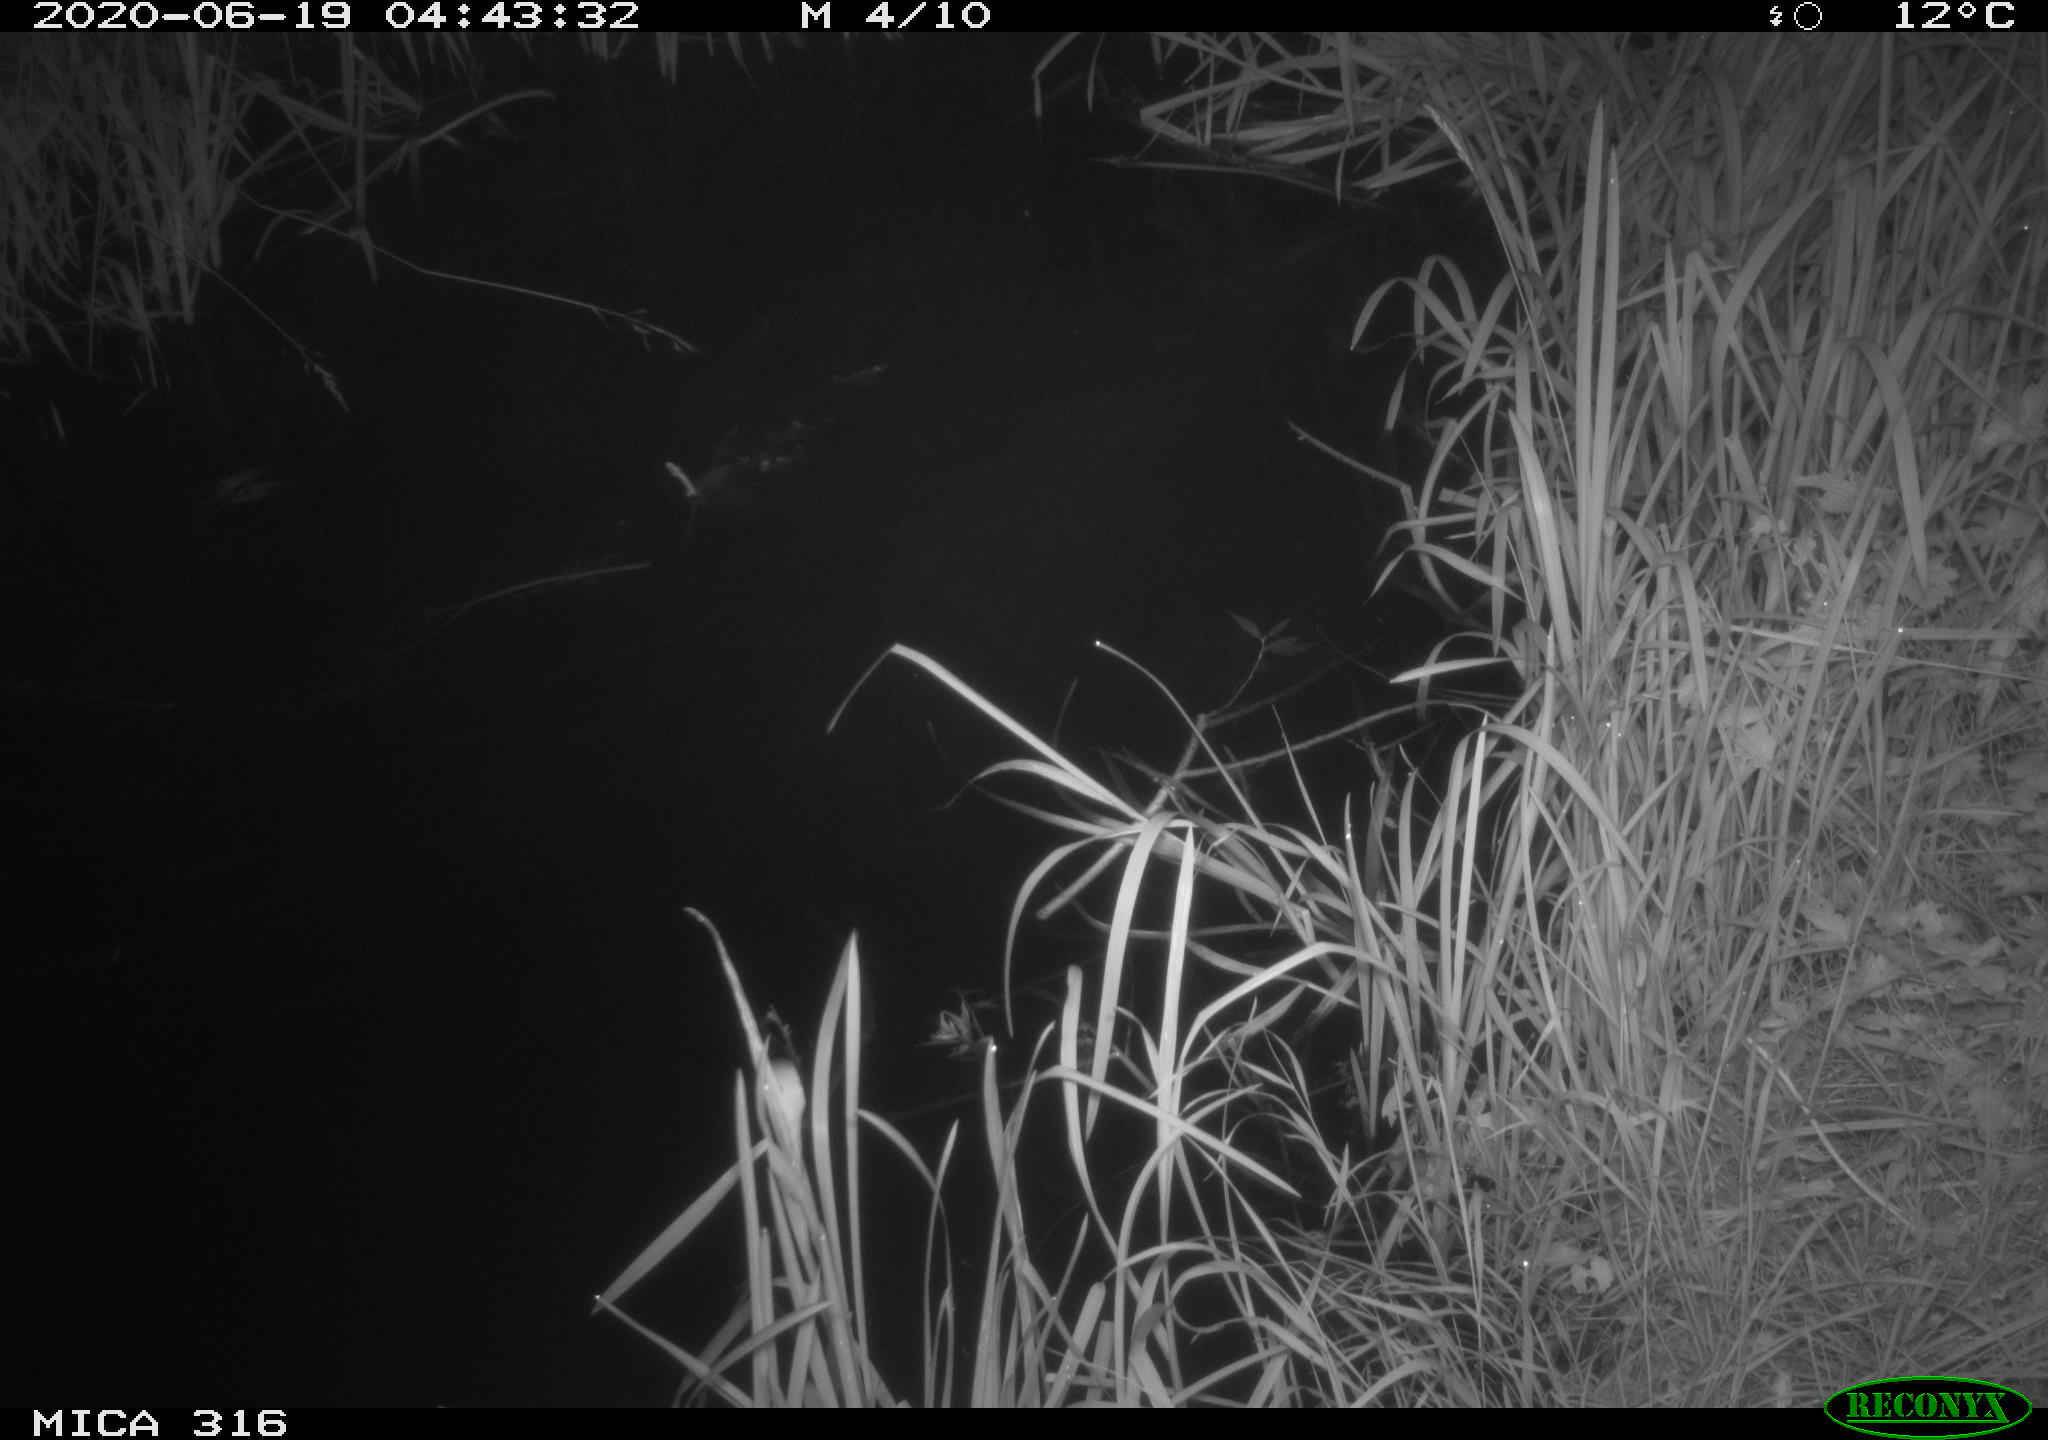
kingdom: Animalia
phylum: Chordata
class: Aves
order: Anseriformes
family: Anatidae
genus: Anas
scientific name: Anas platyrhynchos
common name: Mallard
